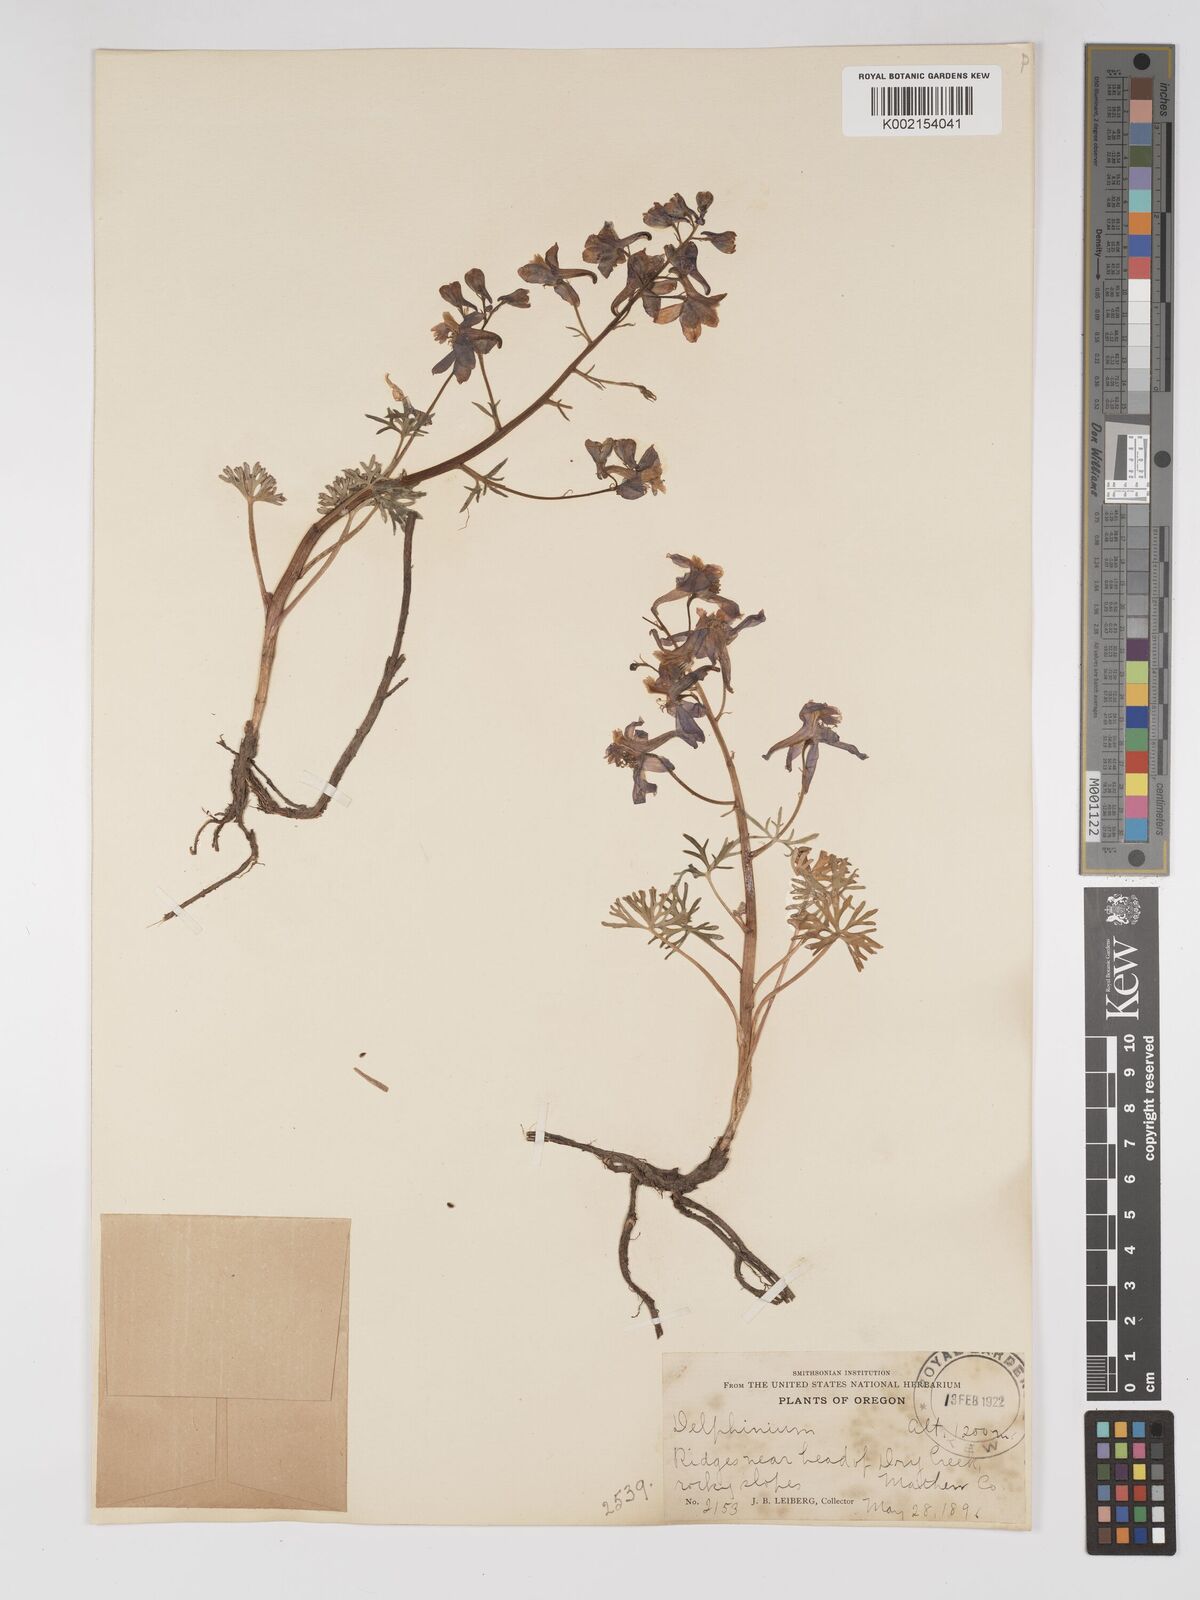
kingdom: Plantae
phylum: Tracheophyta
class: Magnoliopsida
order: Ranunculales
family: Ranunculaceae
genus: Delphinium
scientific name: Delphinium
